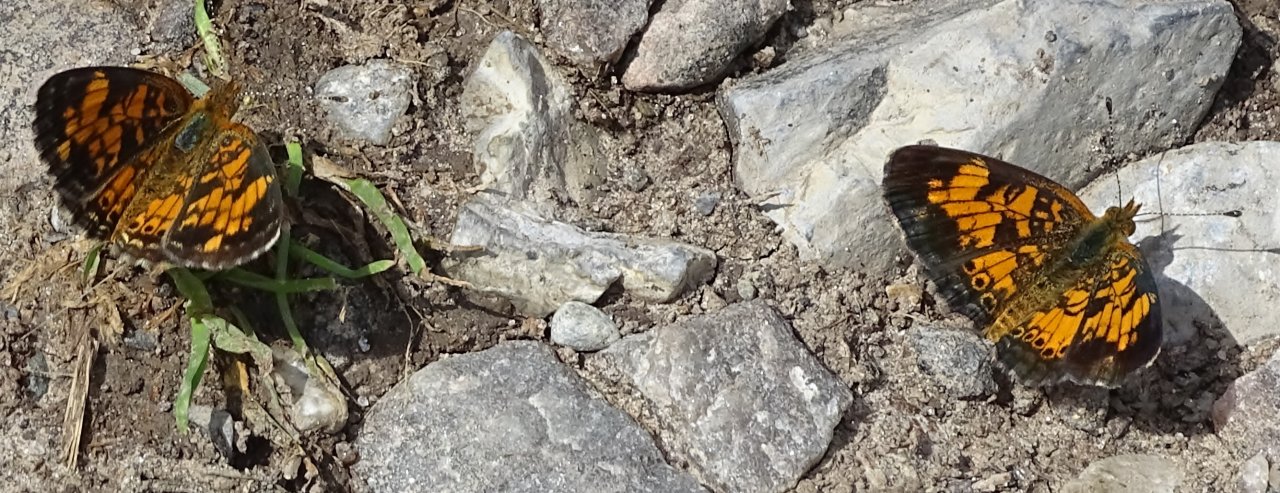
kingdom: Animalia
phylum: Arthropoda
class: Insecta
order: Lepidoptera
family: Nymphalidae
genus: Phyciodes
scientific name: Phyciodes
